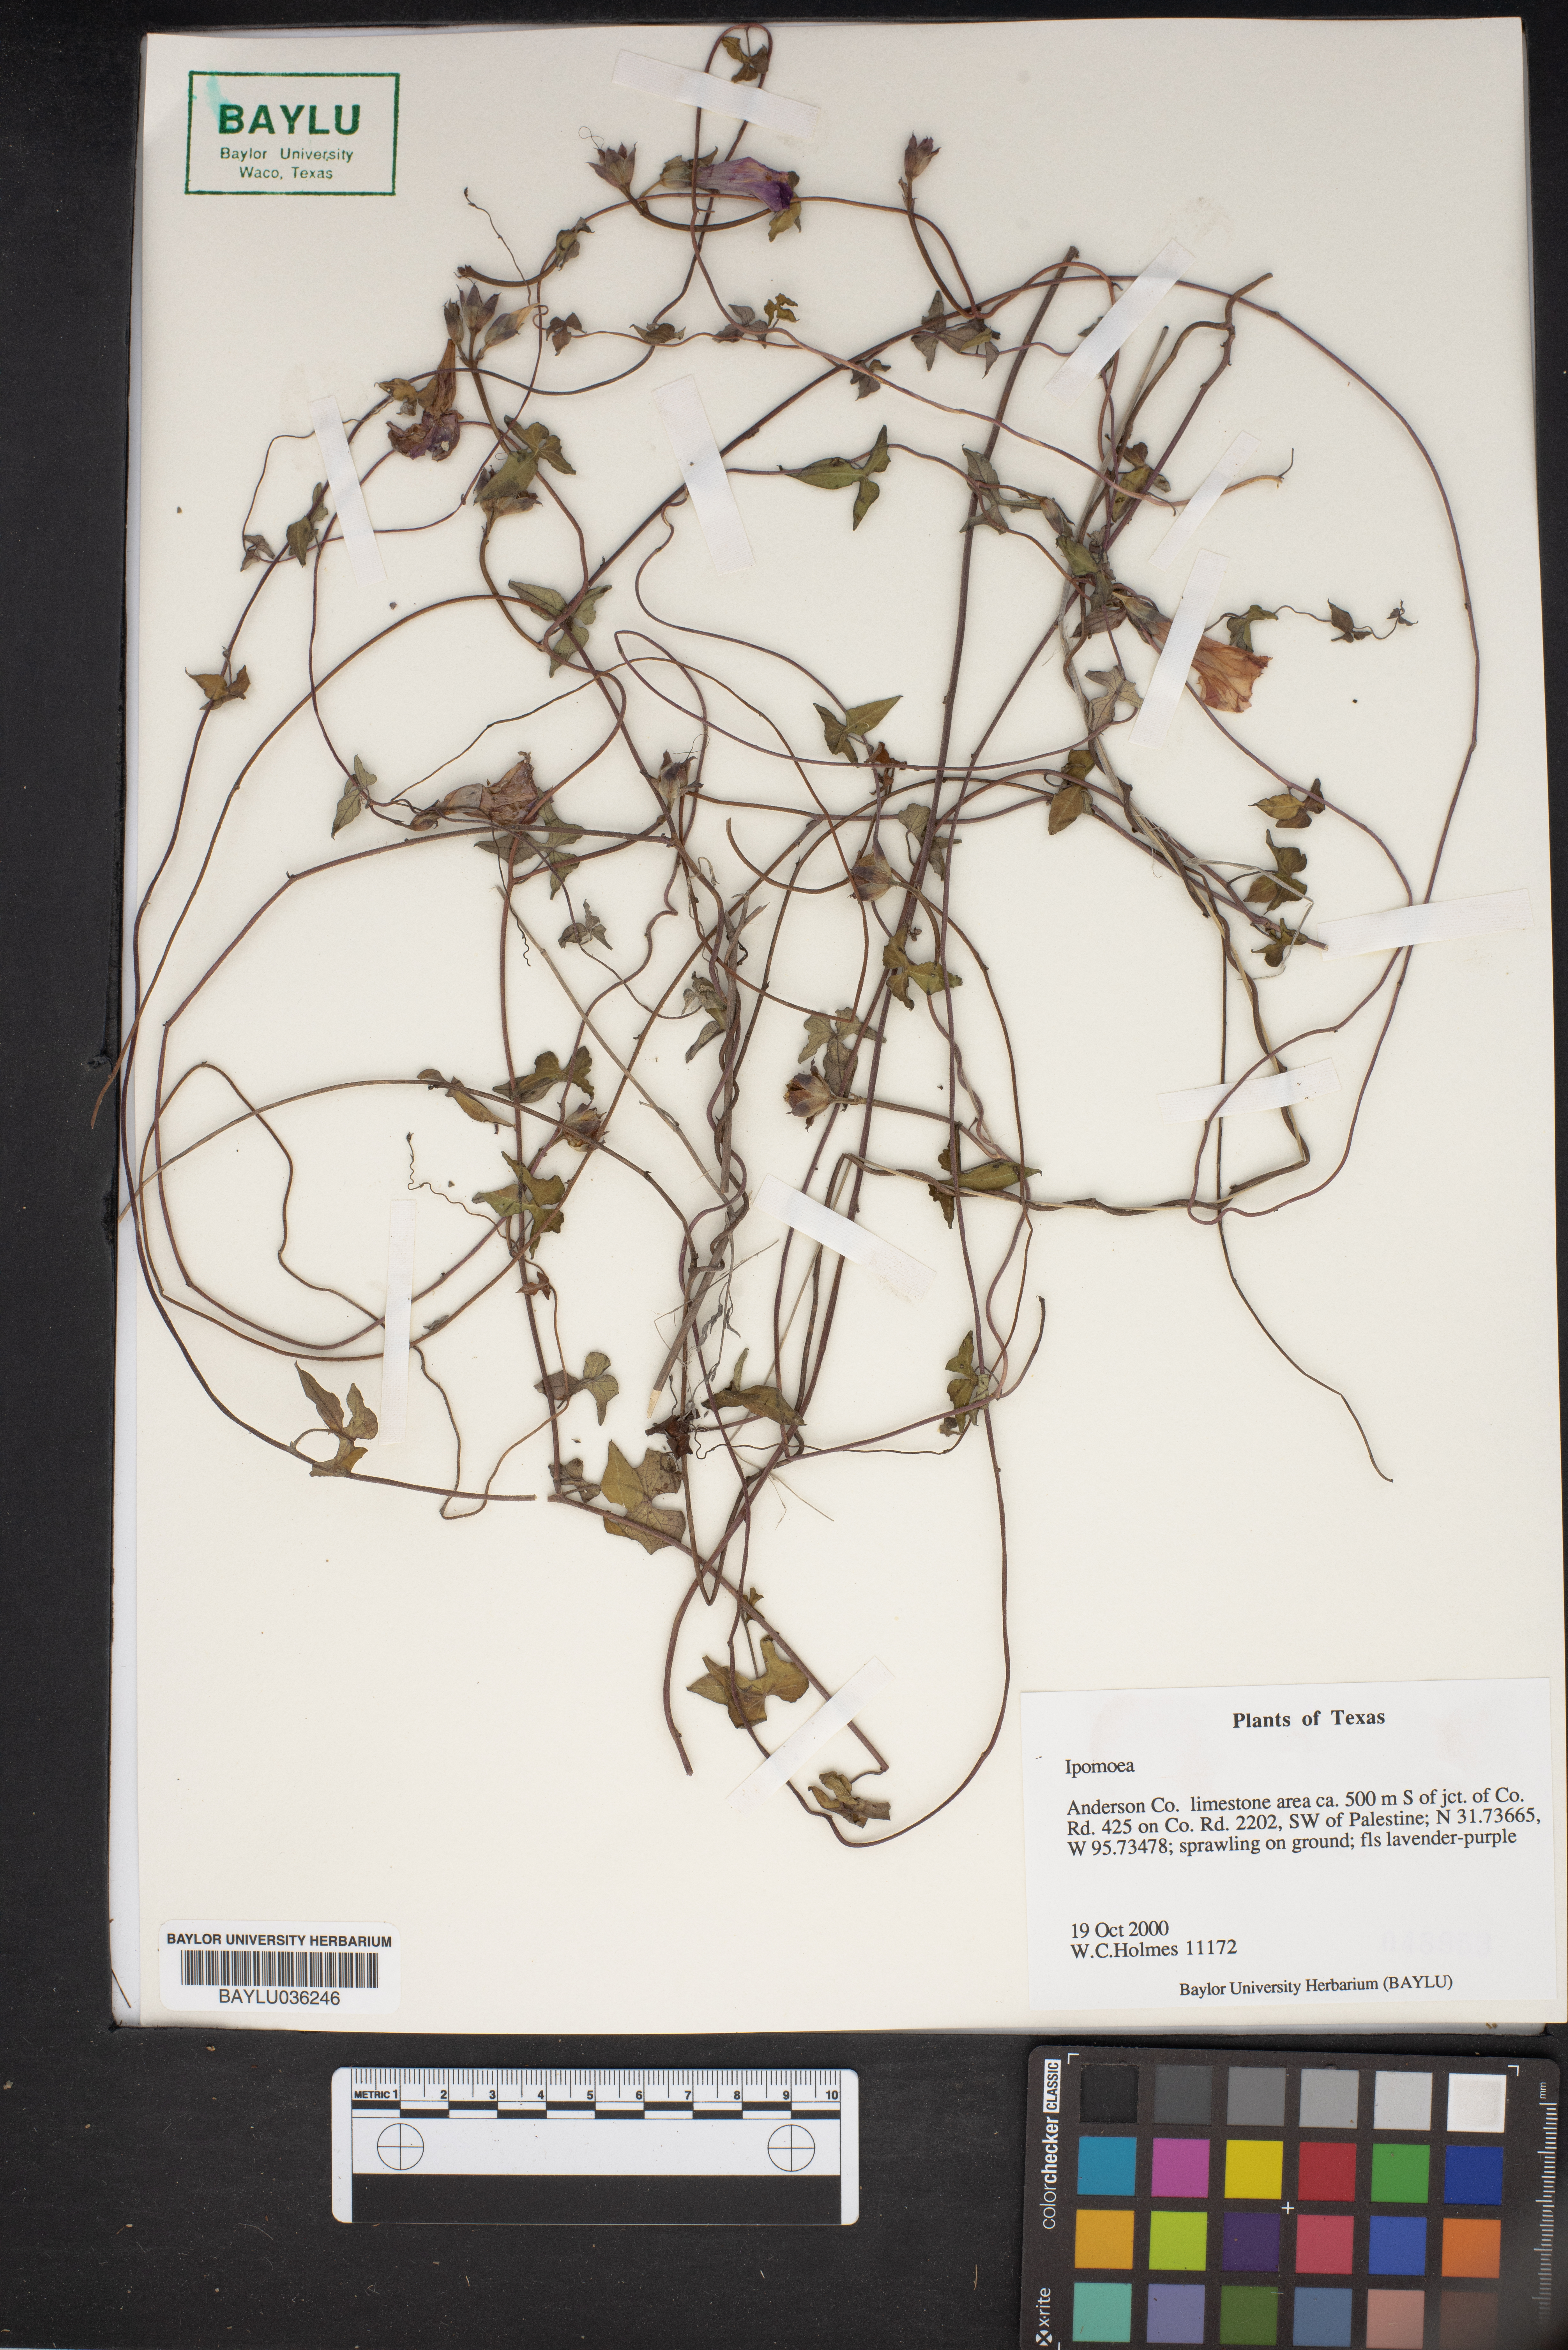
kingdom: Plantae
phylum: Tracheophyta
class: Magnoliopsida
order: Solanales
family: Convolvulaceae
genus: Ipomoea
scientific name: Ipomoea
